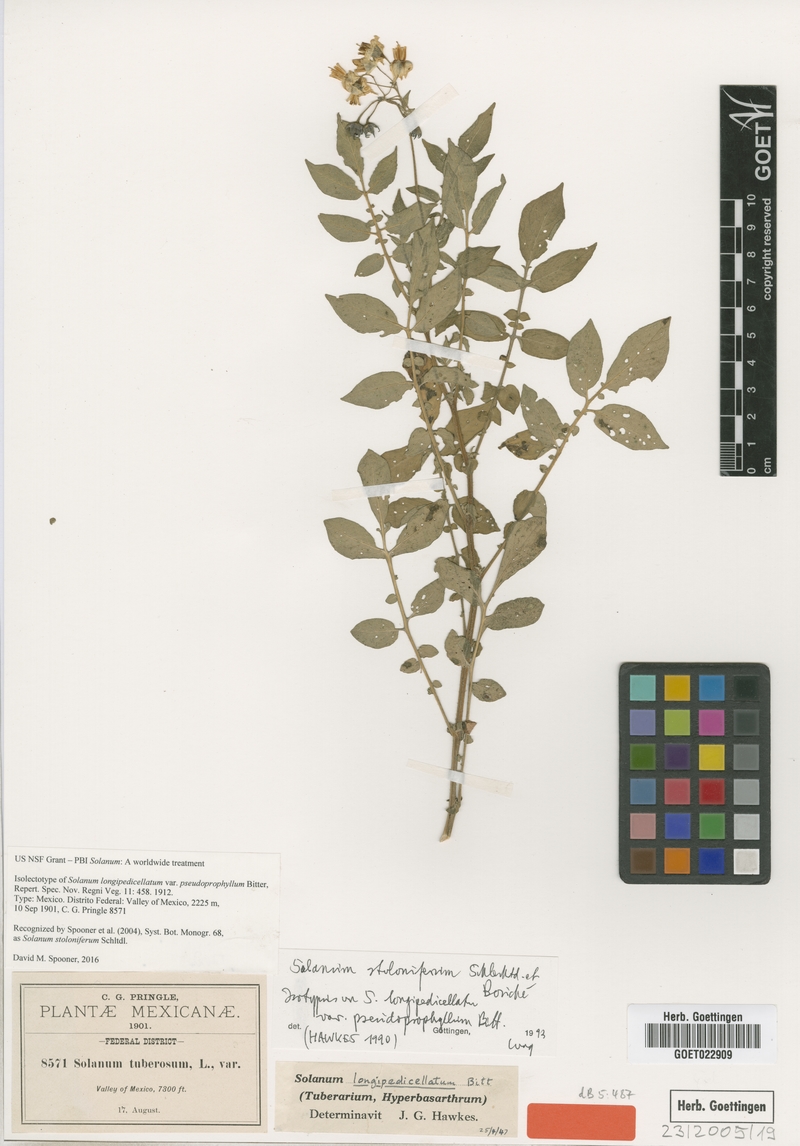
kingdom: Plantae
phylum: Tracheophyta
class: Magnoliopsida
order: Solanales
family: Solanaceae
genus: Solanum
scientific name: Solanum stoloniferum
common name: Fendler's nighshade
